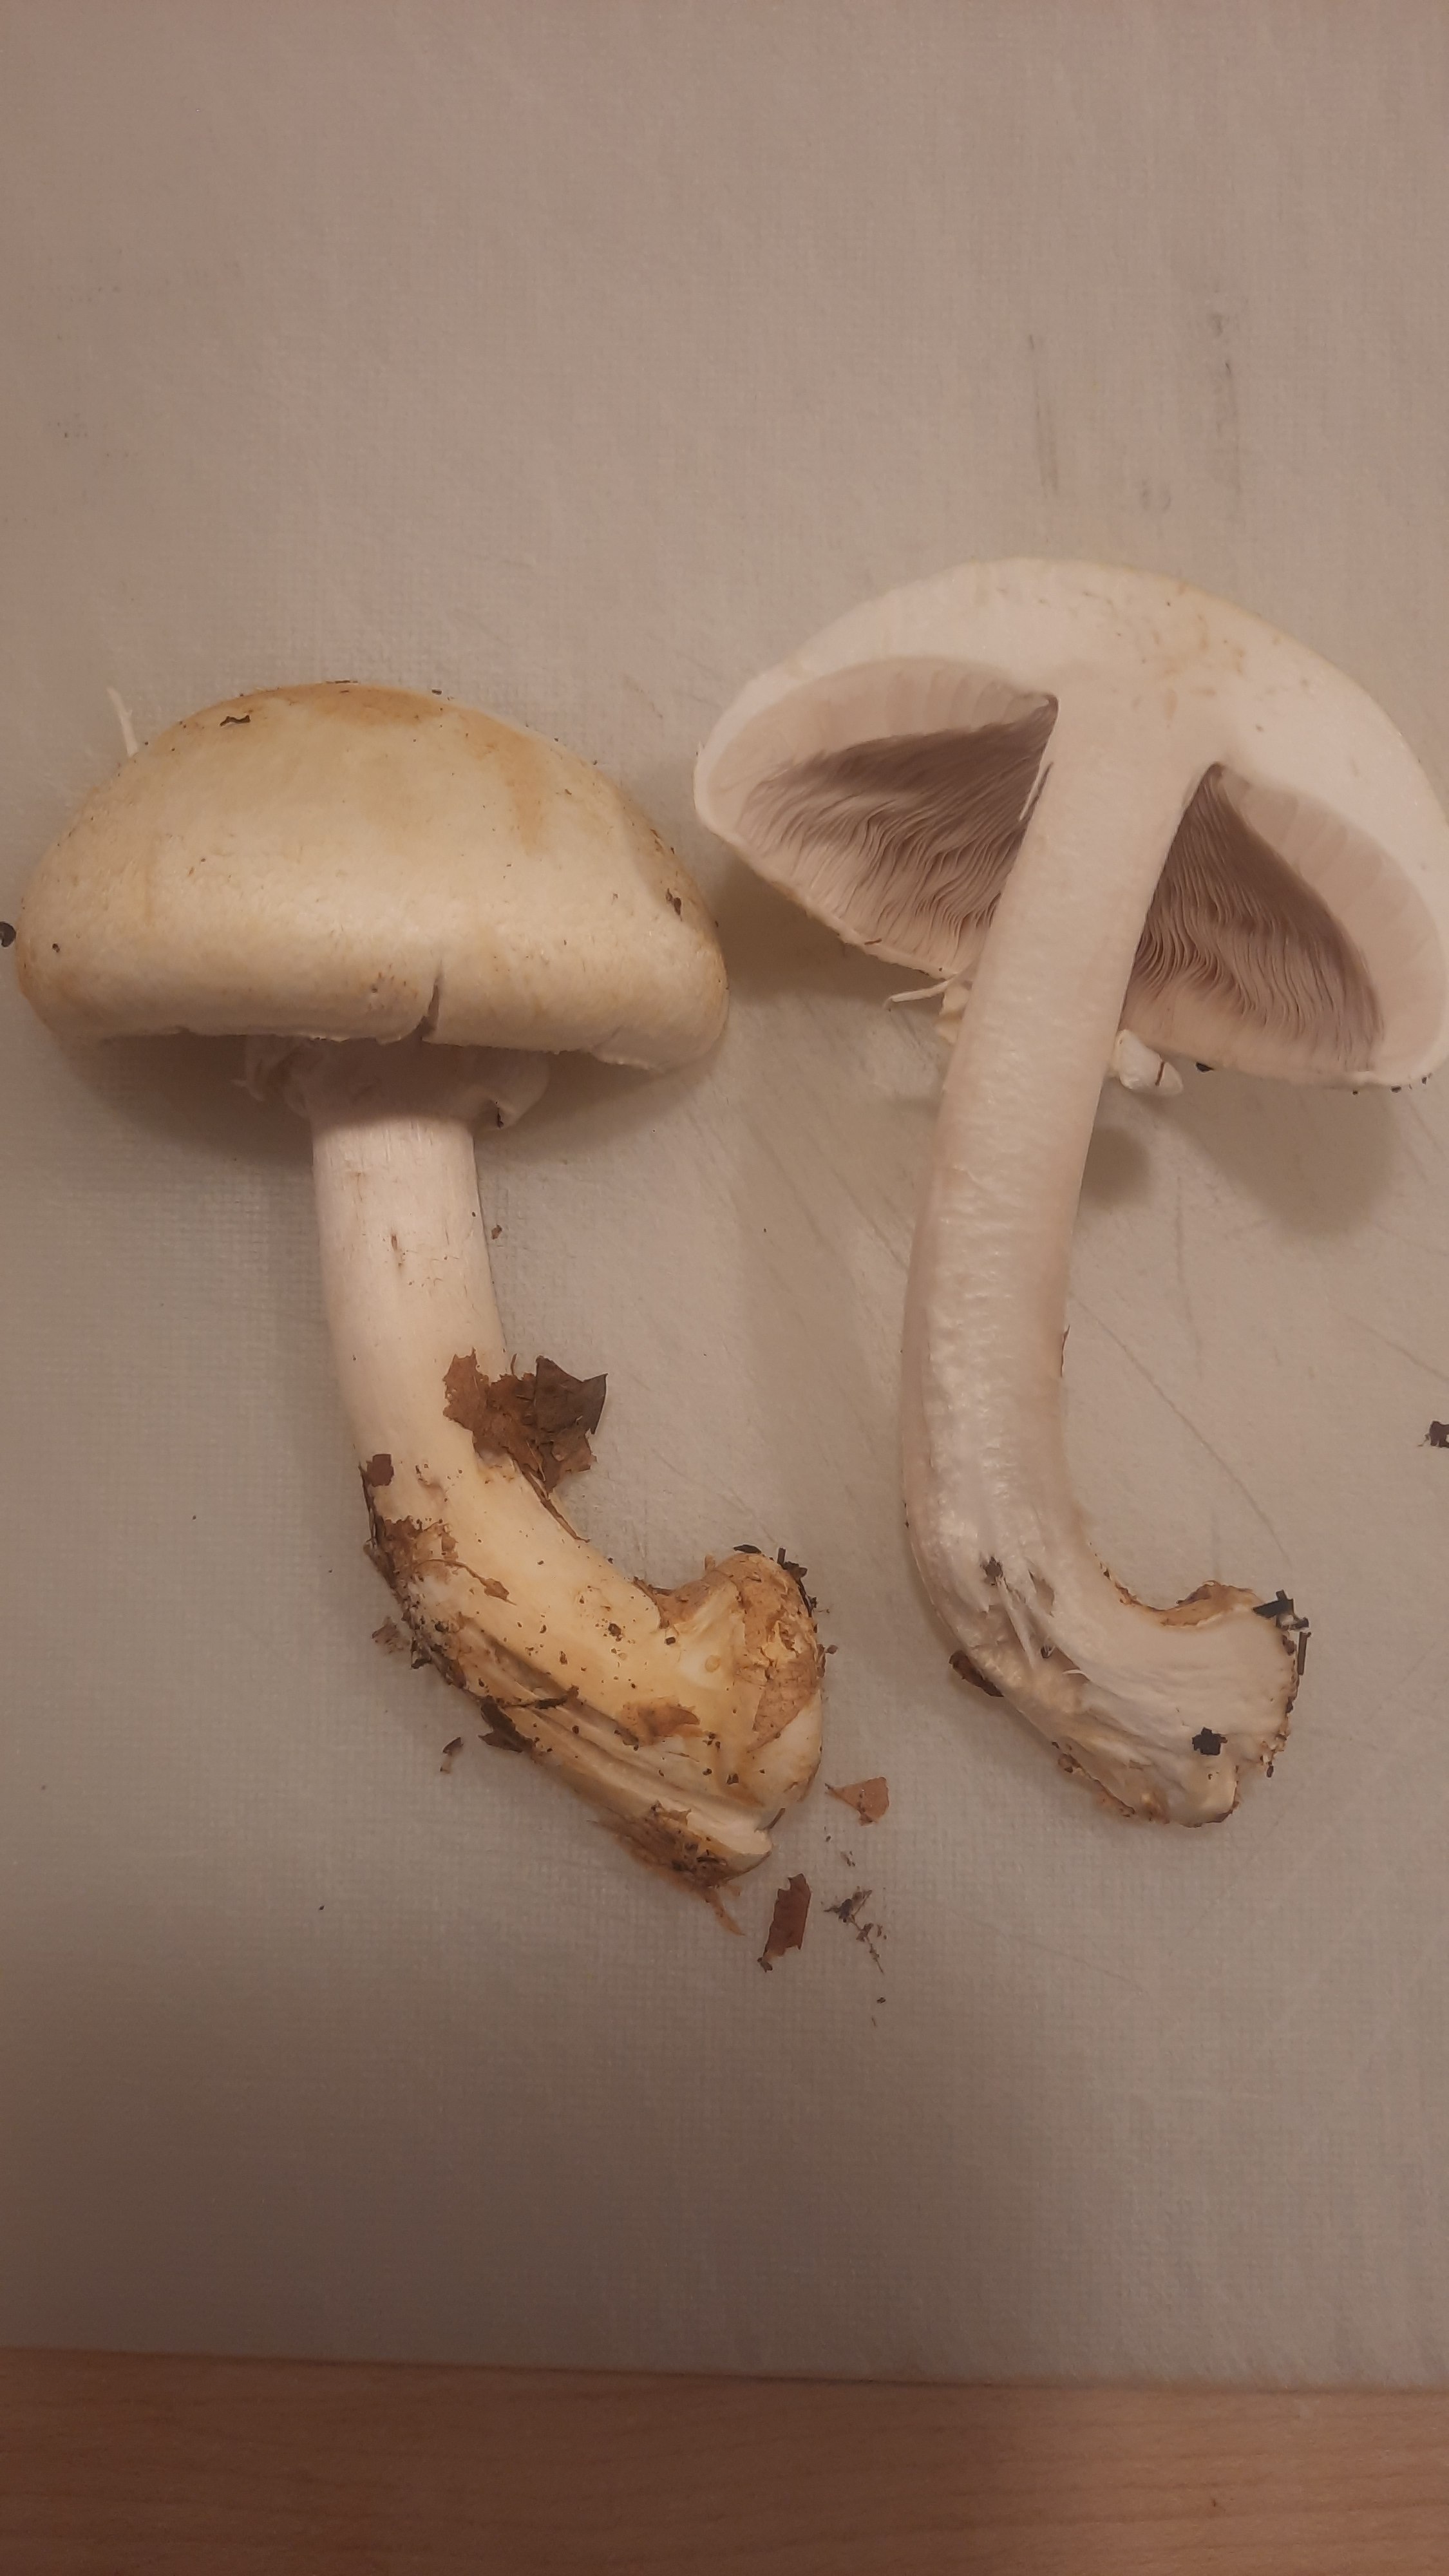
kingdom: Fungi
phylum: Basidiomycota
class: Agaricomycetes
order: Agaricales
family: Agaricaceae
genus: Agaricus
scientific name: Agaricus sylvicola
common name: skiveknoldet champignon
